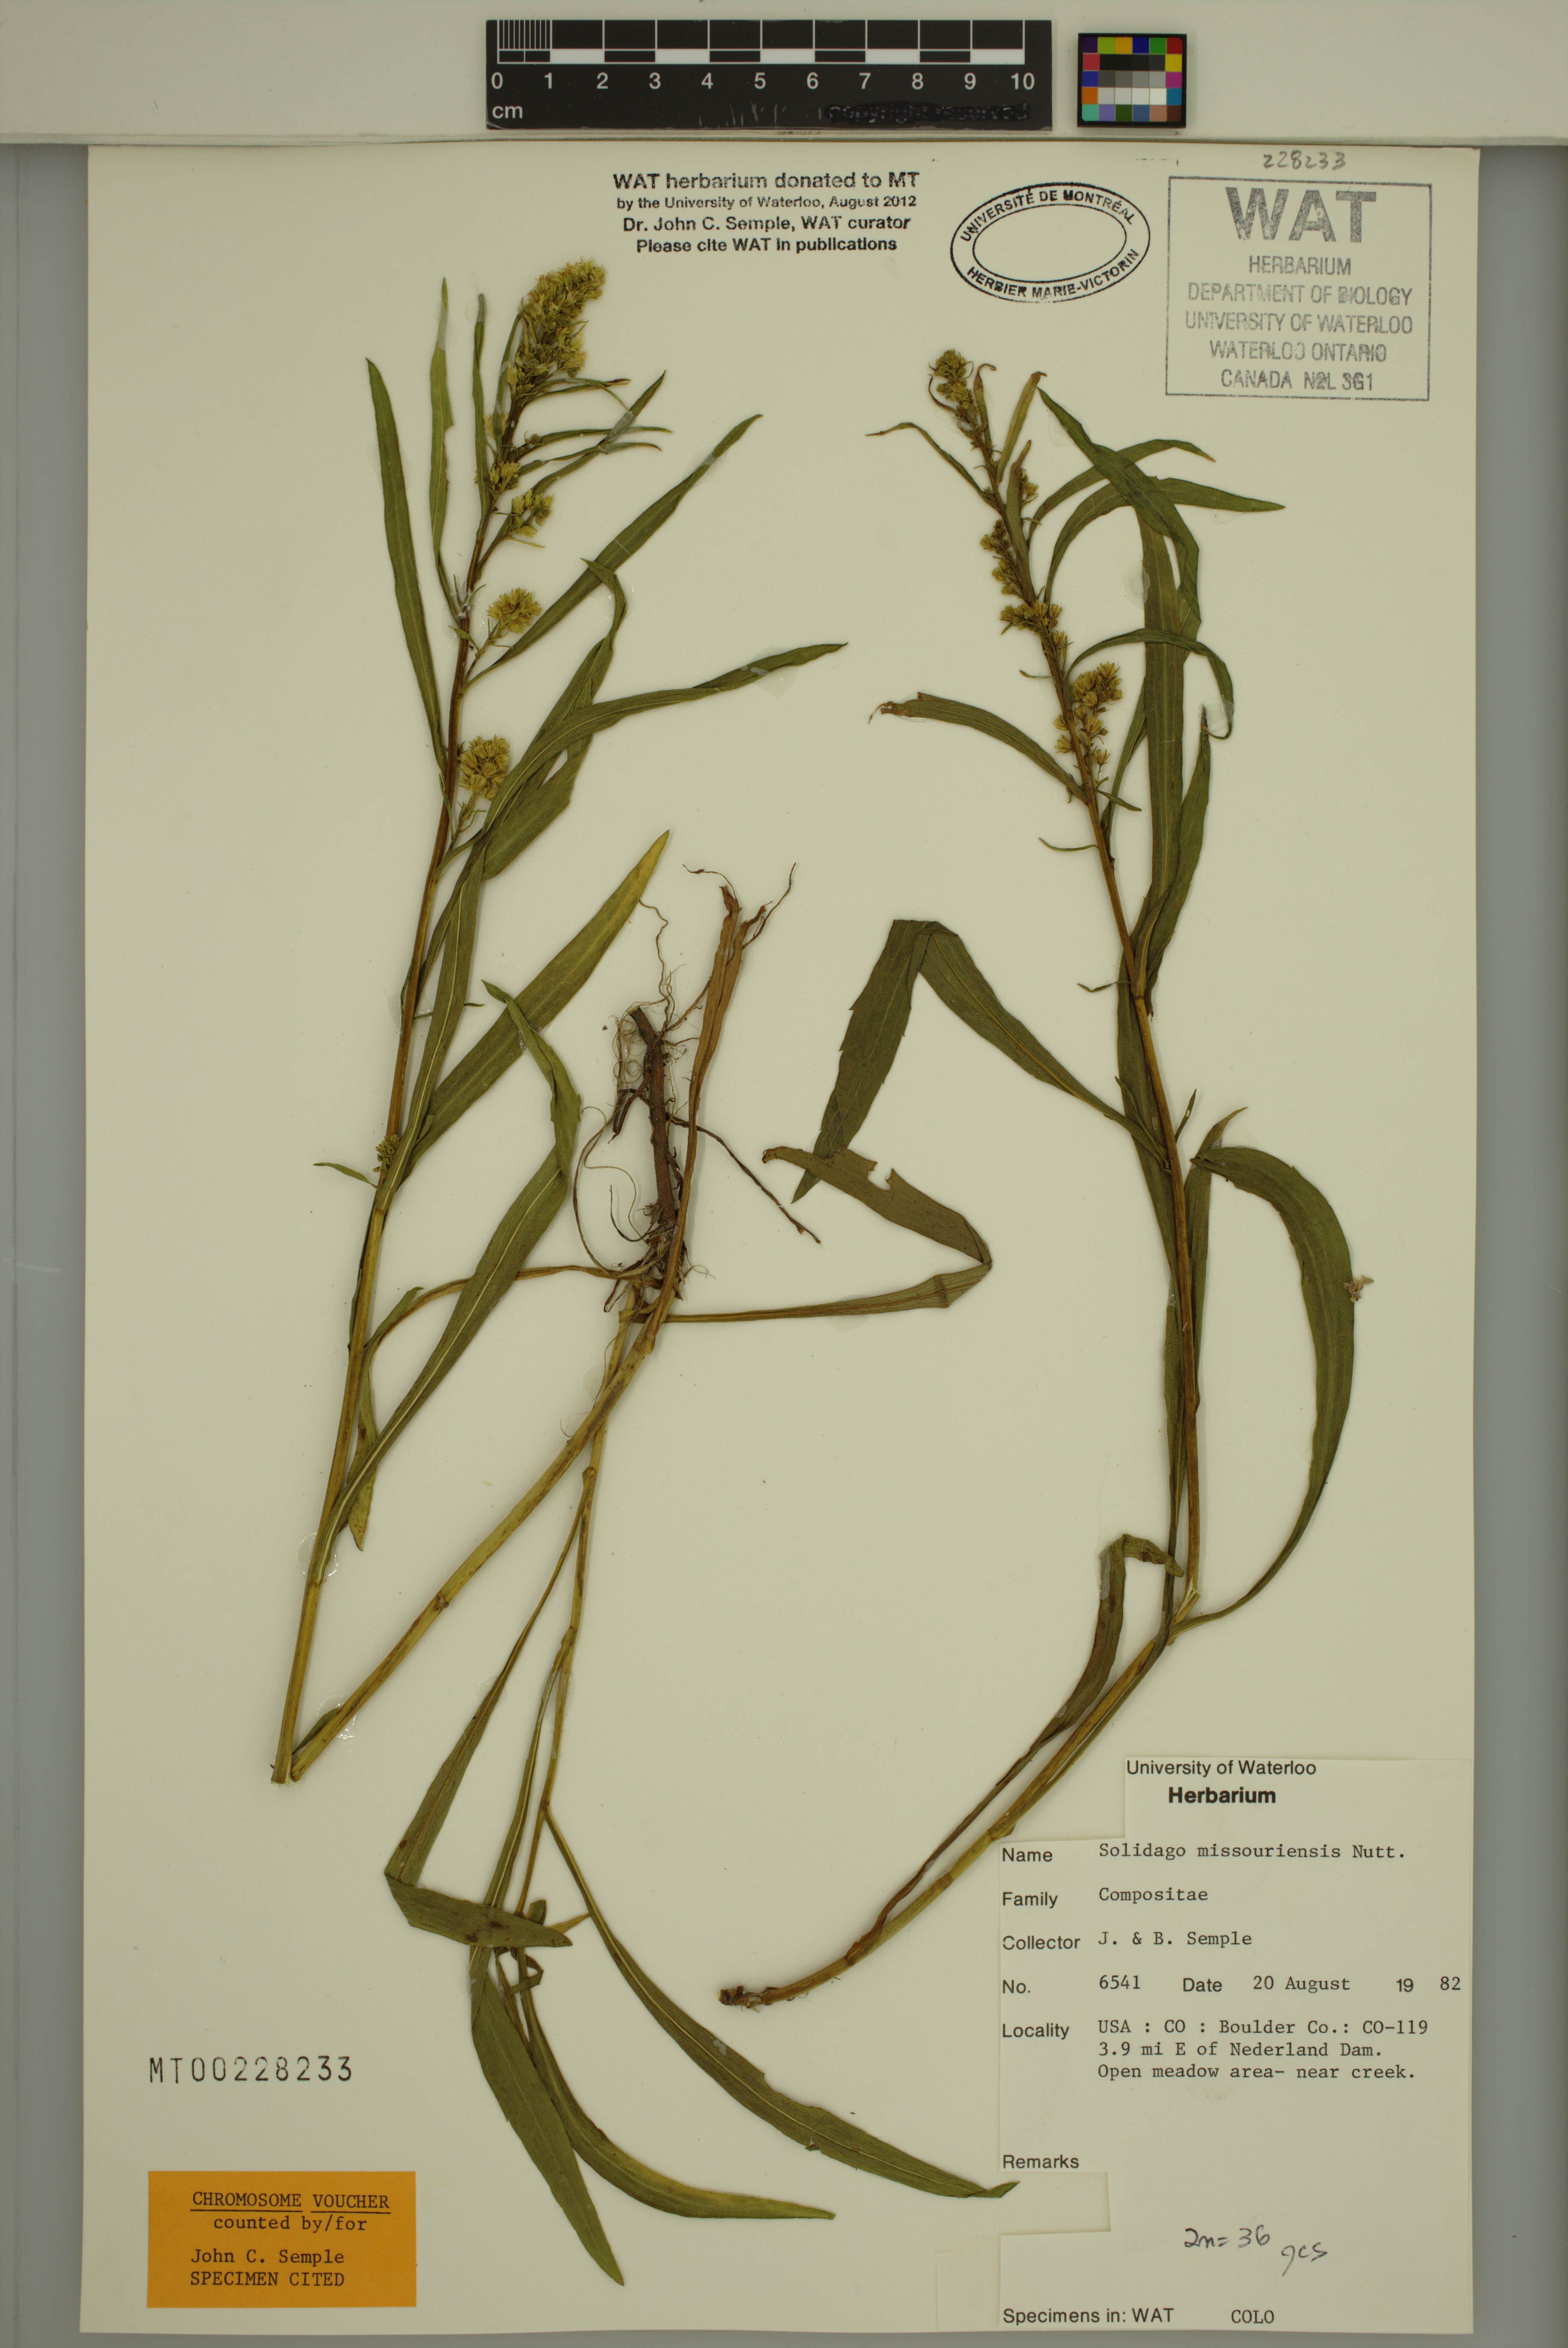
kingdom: Plantae
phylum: Tracheophyta
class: Magnoliopsida
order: Asterales
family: Asteraceae
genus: Solidago
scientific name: Solidago missouriensis
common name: Prairie goldenrod
